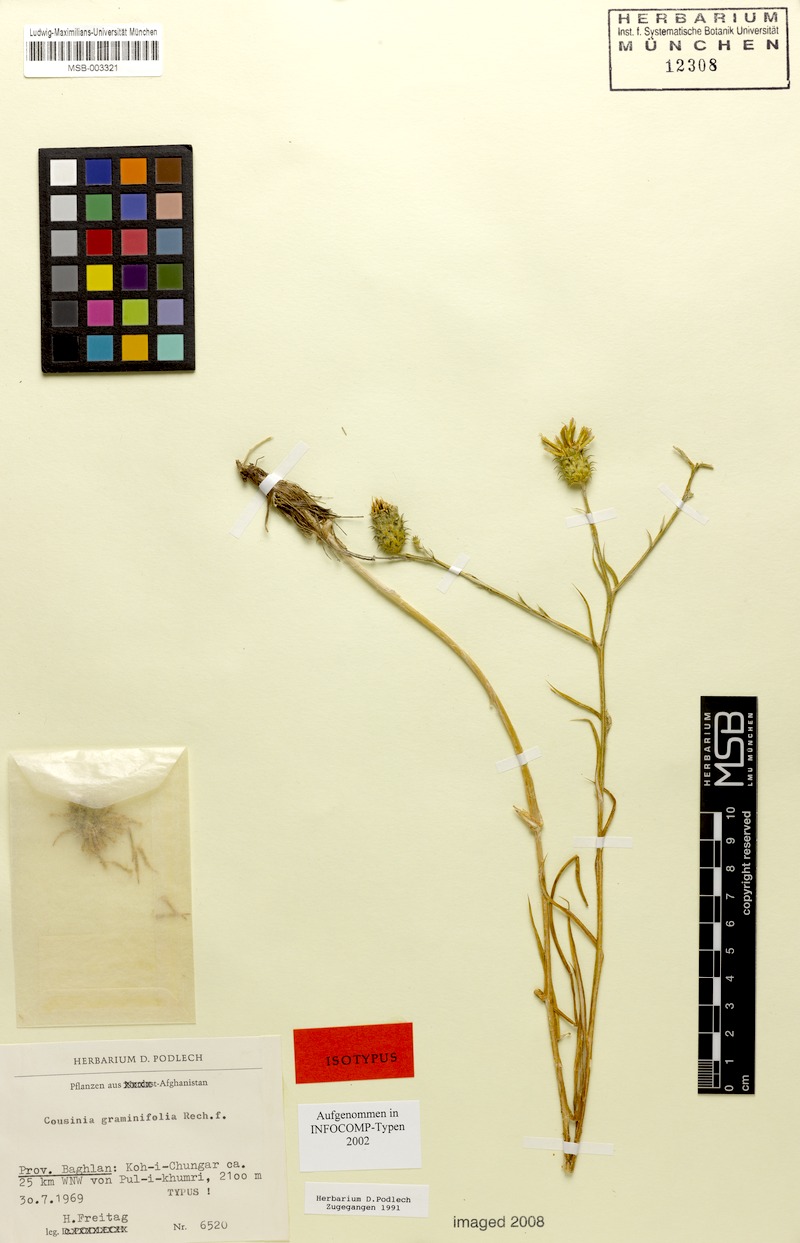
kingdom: Plantae
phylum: Tracheophyta
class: Magnoliopsida
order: Asterales
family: Asteraceae
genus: Cousinia
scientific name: Cousinia graminifolia
